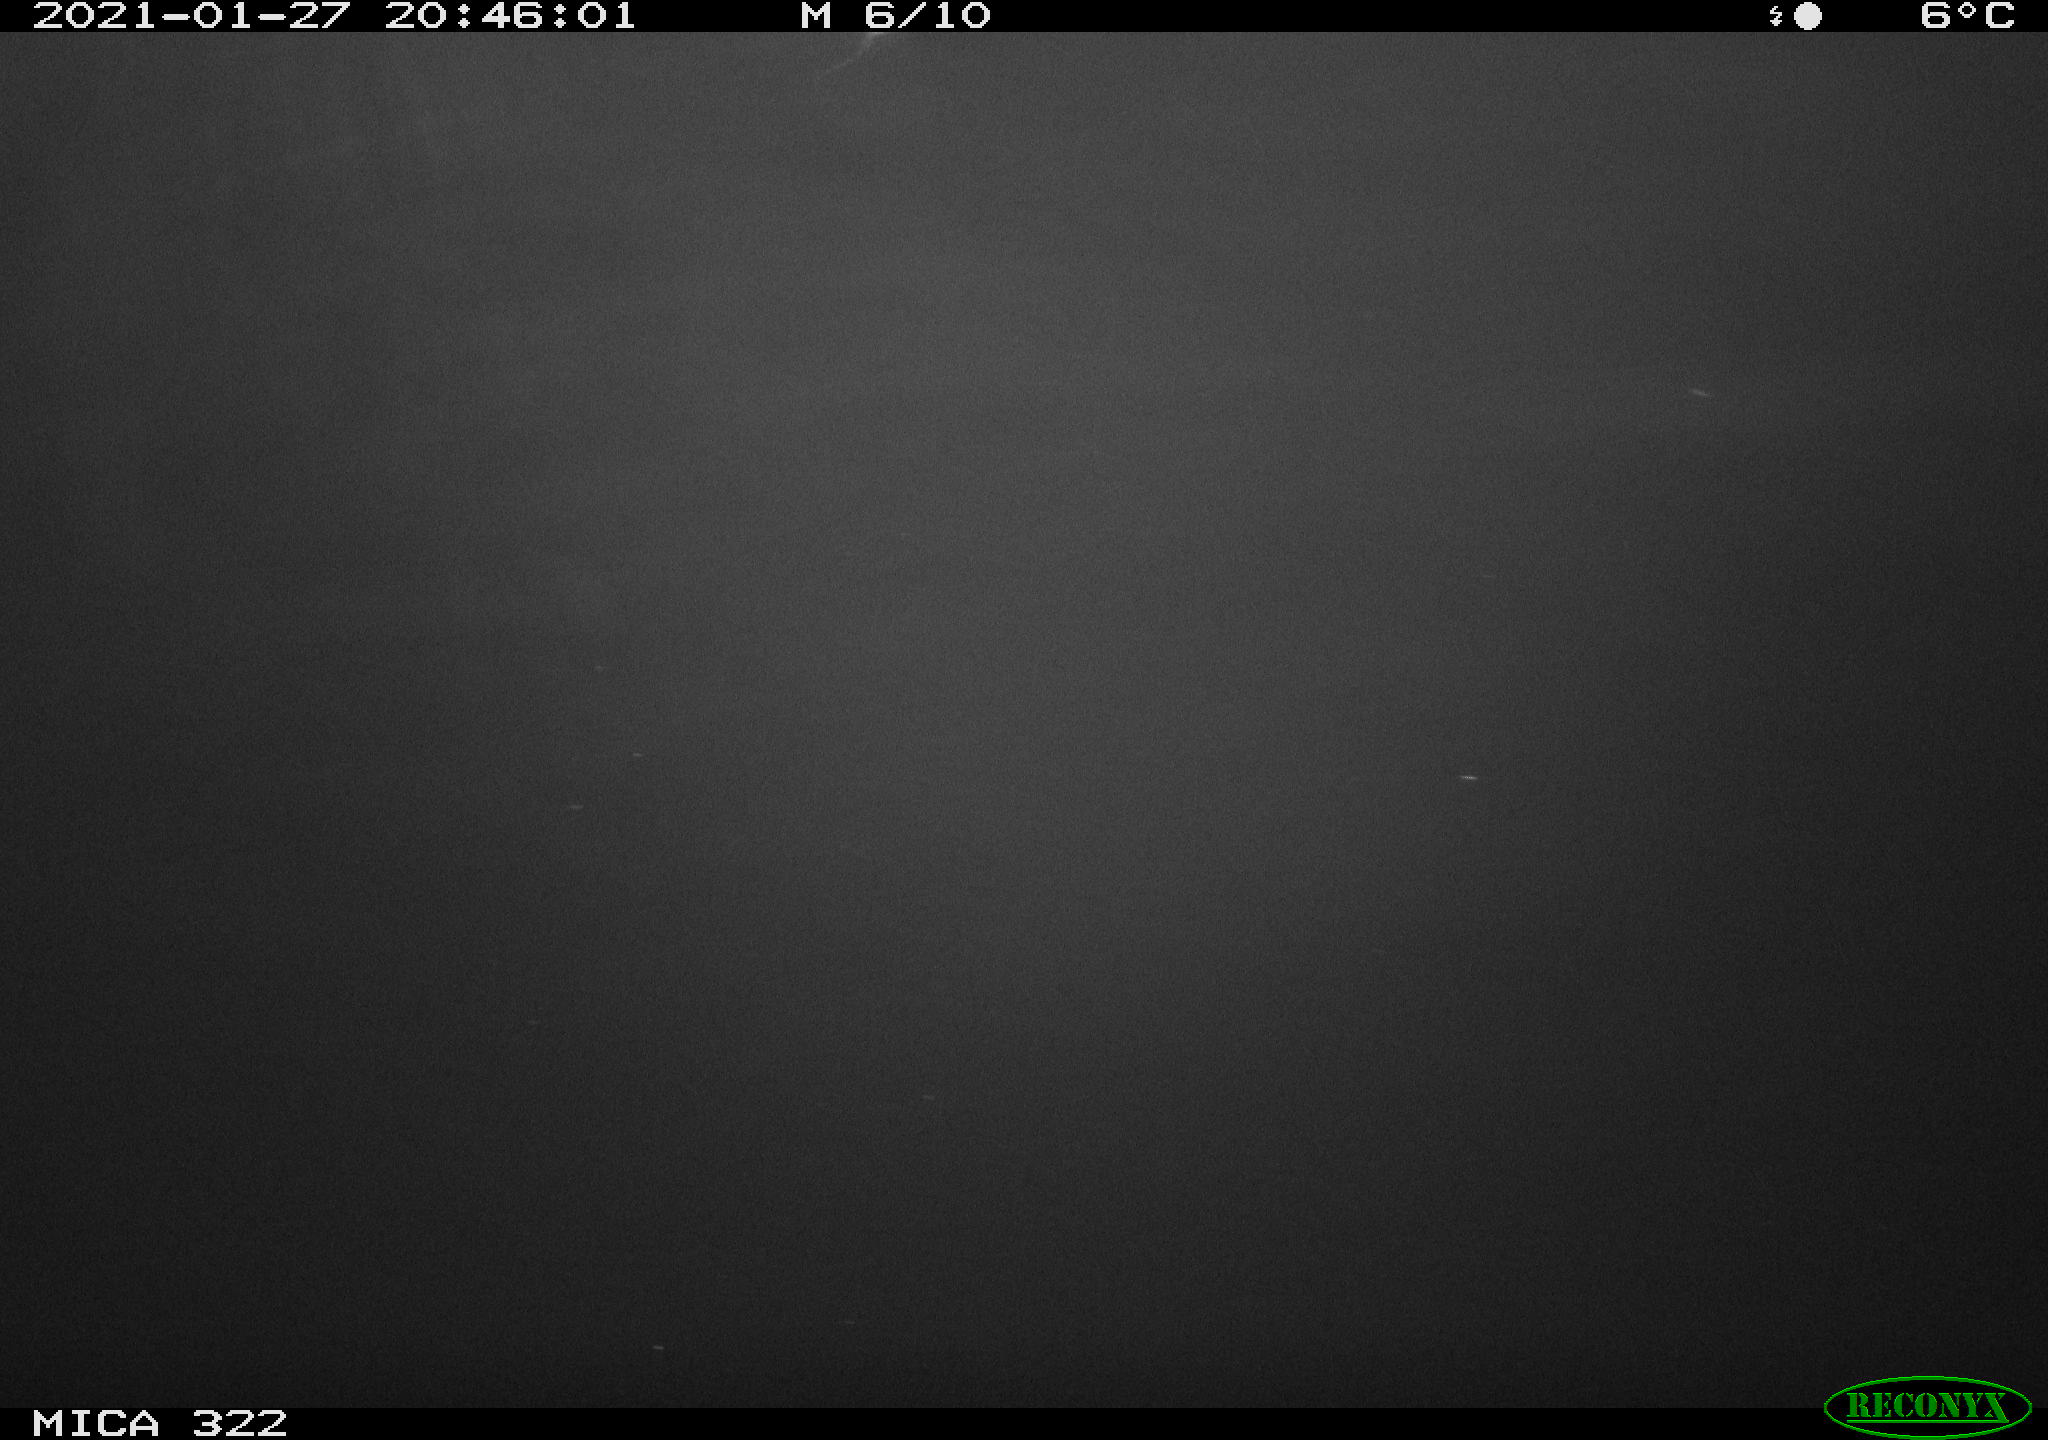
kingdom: Animalia
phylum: Chordata
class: Mammalia
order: Rodentia
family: Muridae
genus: Rattus
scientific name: Rattus norvegicus
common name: Brown rat
